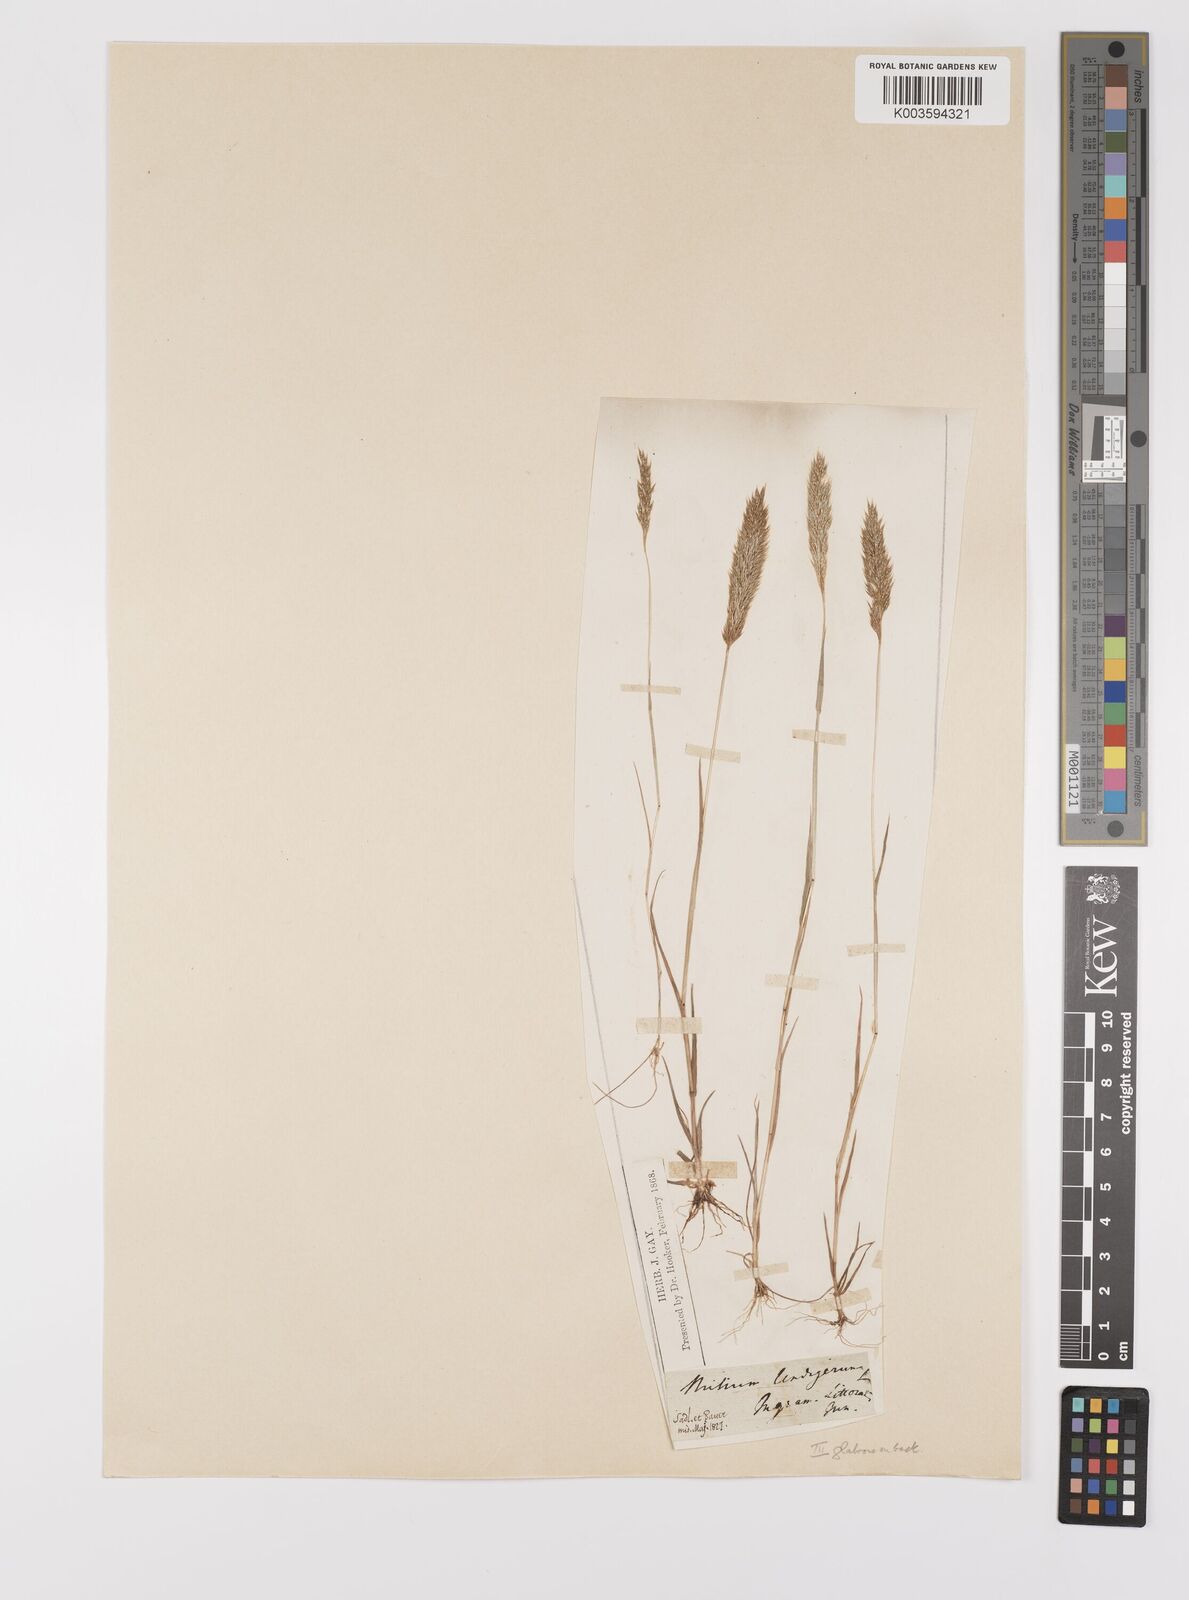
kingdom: Plantae
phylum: Tracheophyta
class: Liliopsida
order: Poales
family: Poaceae
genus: Gastridium
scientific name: Gastridium ventricosum
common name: Nit-grass
